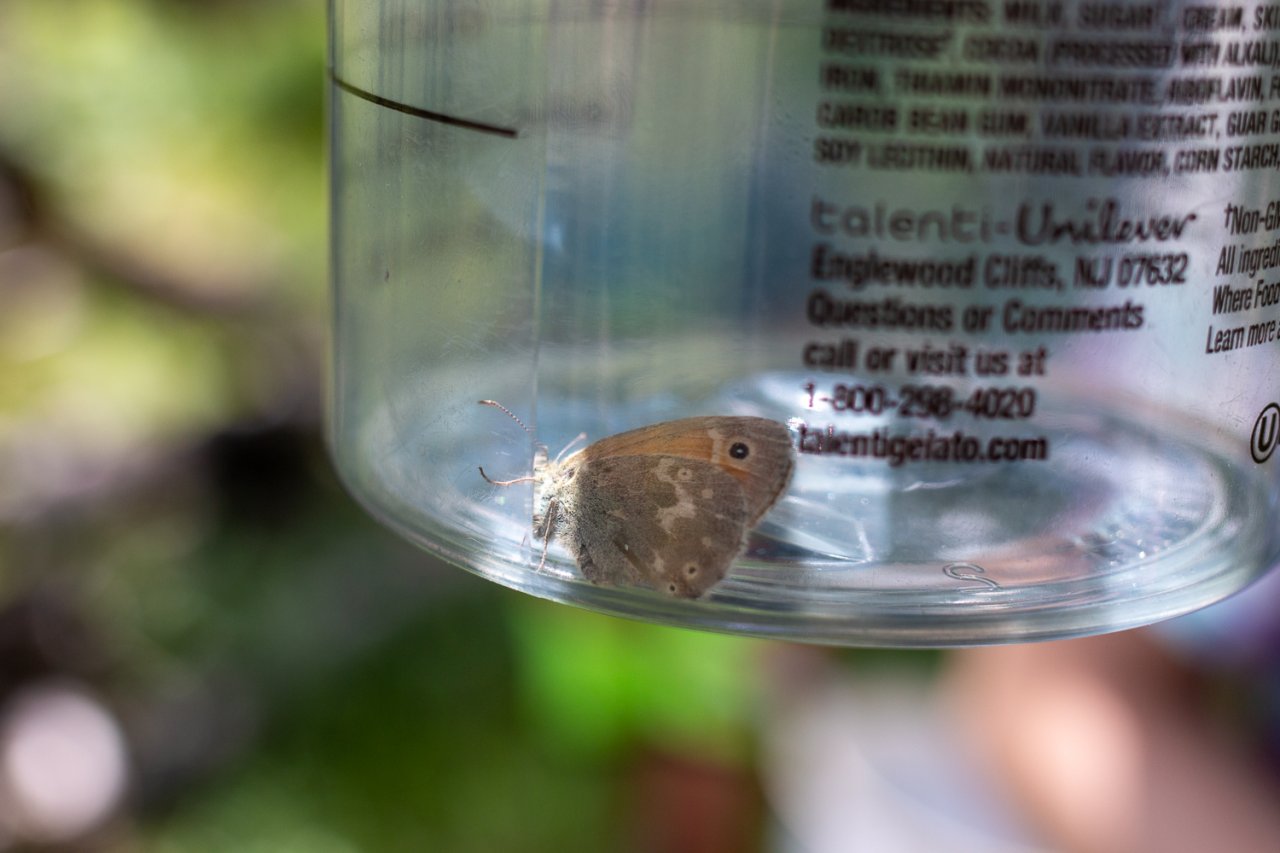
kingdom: Animalia
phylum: Arthropoda
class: Insecta
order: Lepidoptera
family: Nymphalidae
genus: Cercyonis
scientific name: Cercyonis oetus
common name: Small Wood-Nymph
